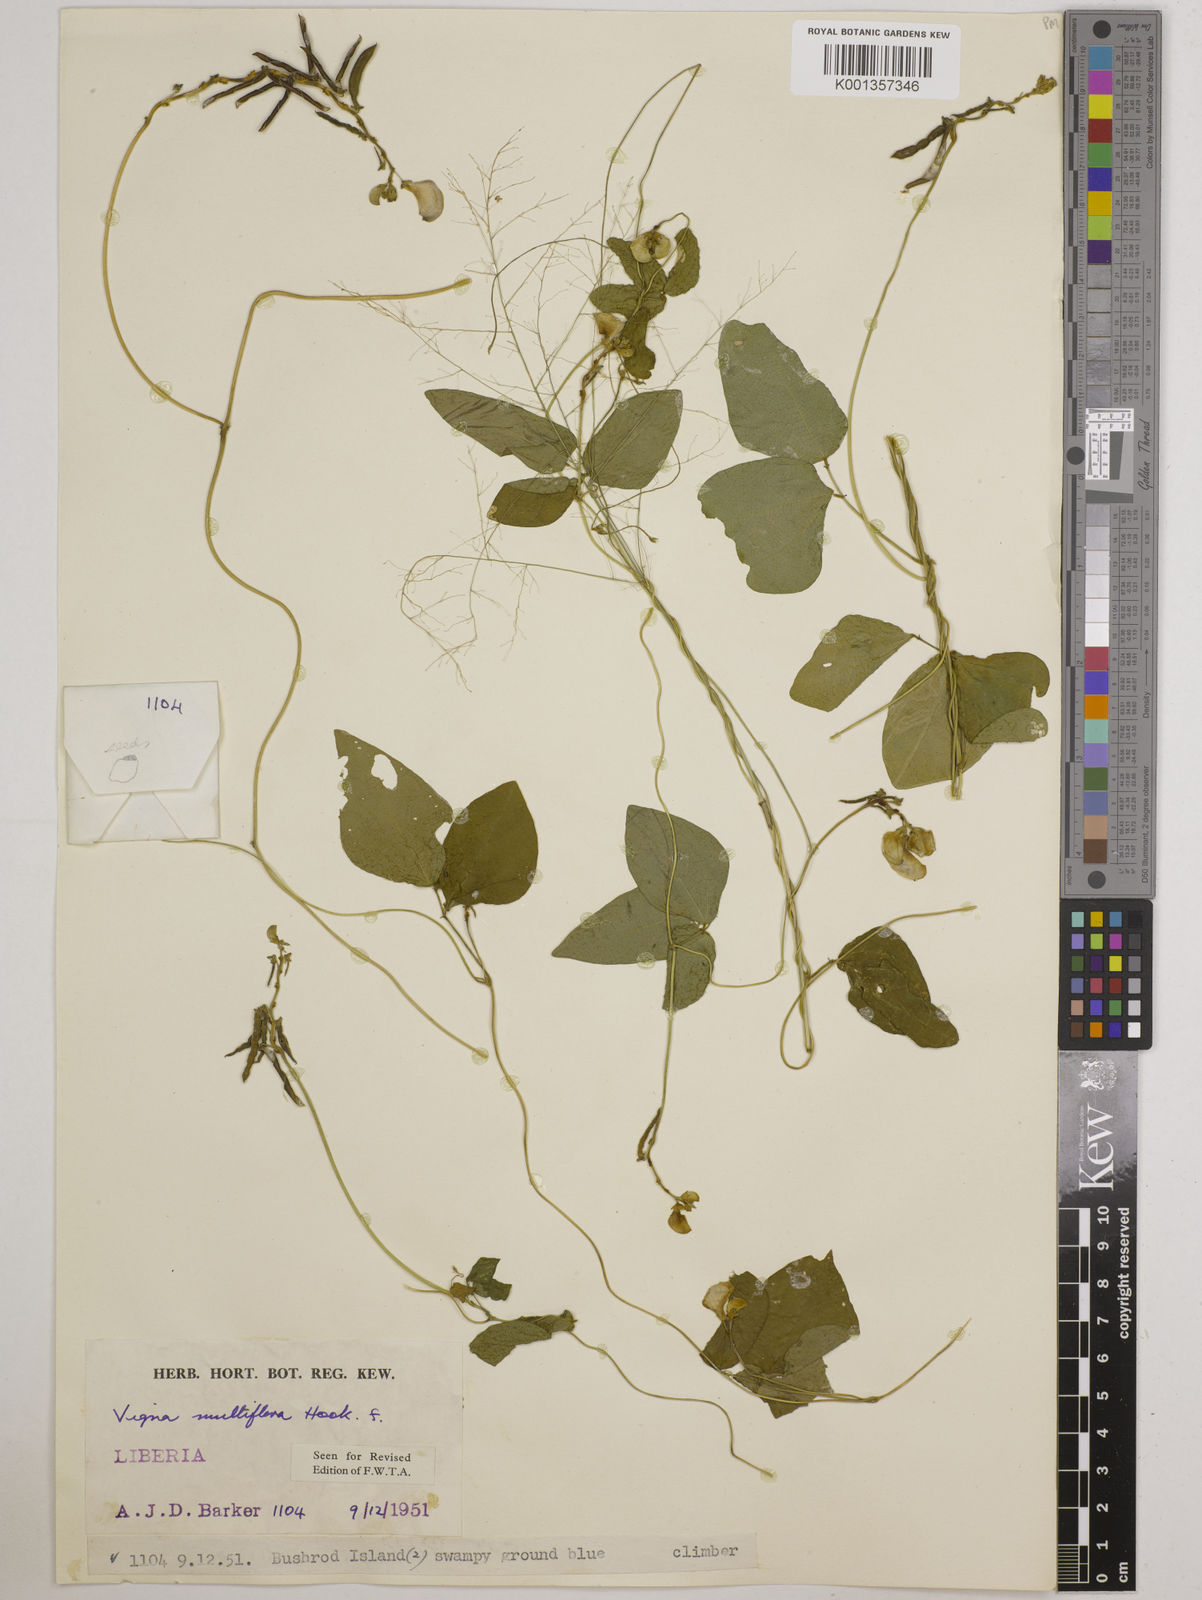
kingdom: Plantae
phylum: Tracheophyta
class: Magnoliopsida
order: Fabales
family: Fabaceae
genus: Vigna
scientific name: Vigna gracilis
